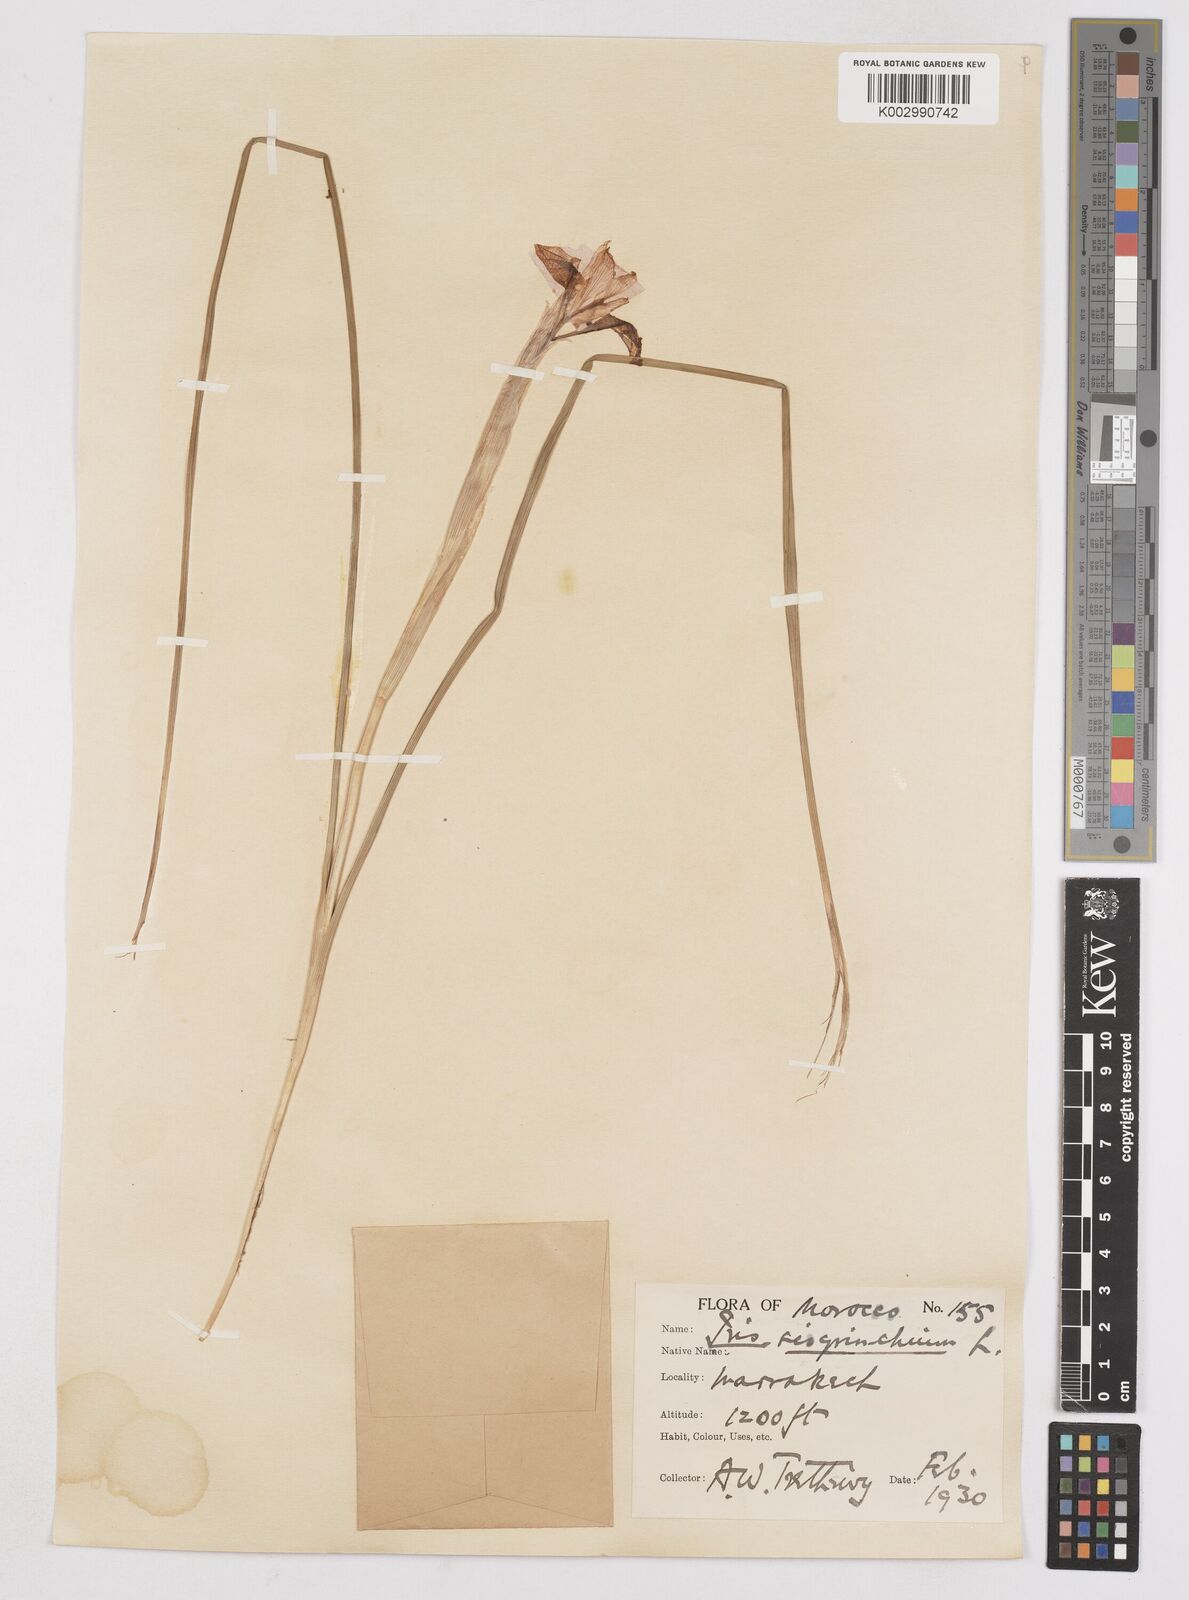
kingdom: Plantae
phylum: Tracheophyta
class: Liliopsida
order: Asparagales
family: Iridaceae
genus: Moraea
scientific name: Moraea sisyrinchium
